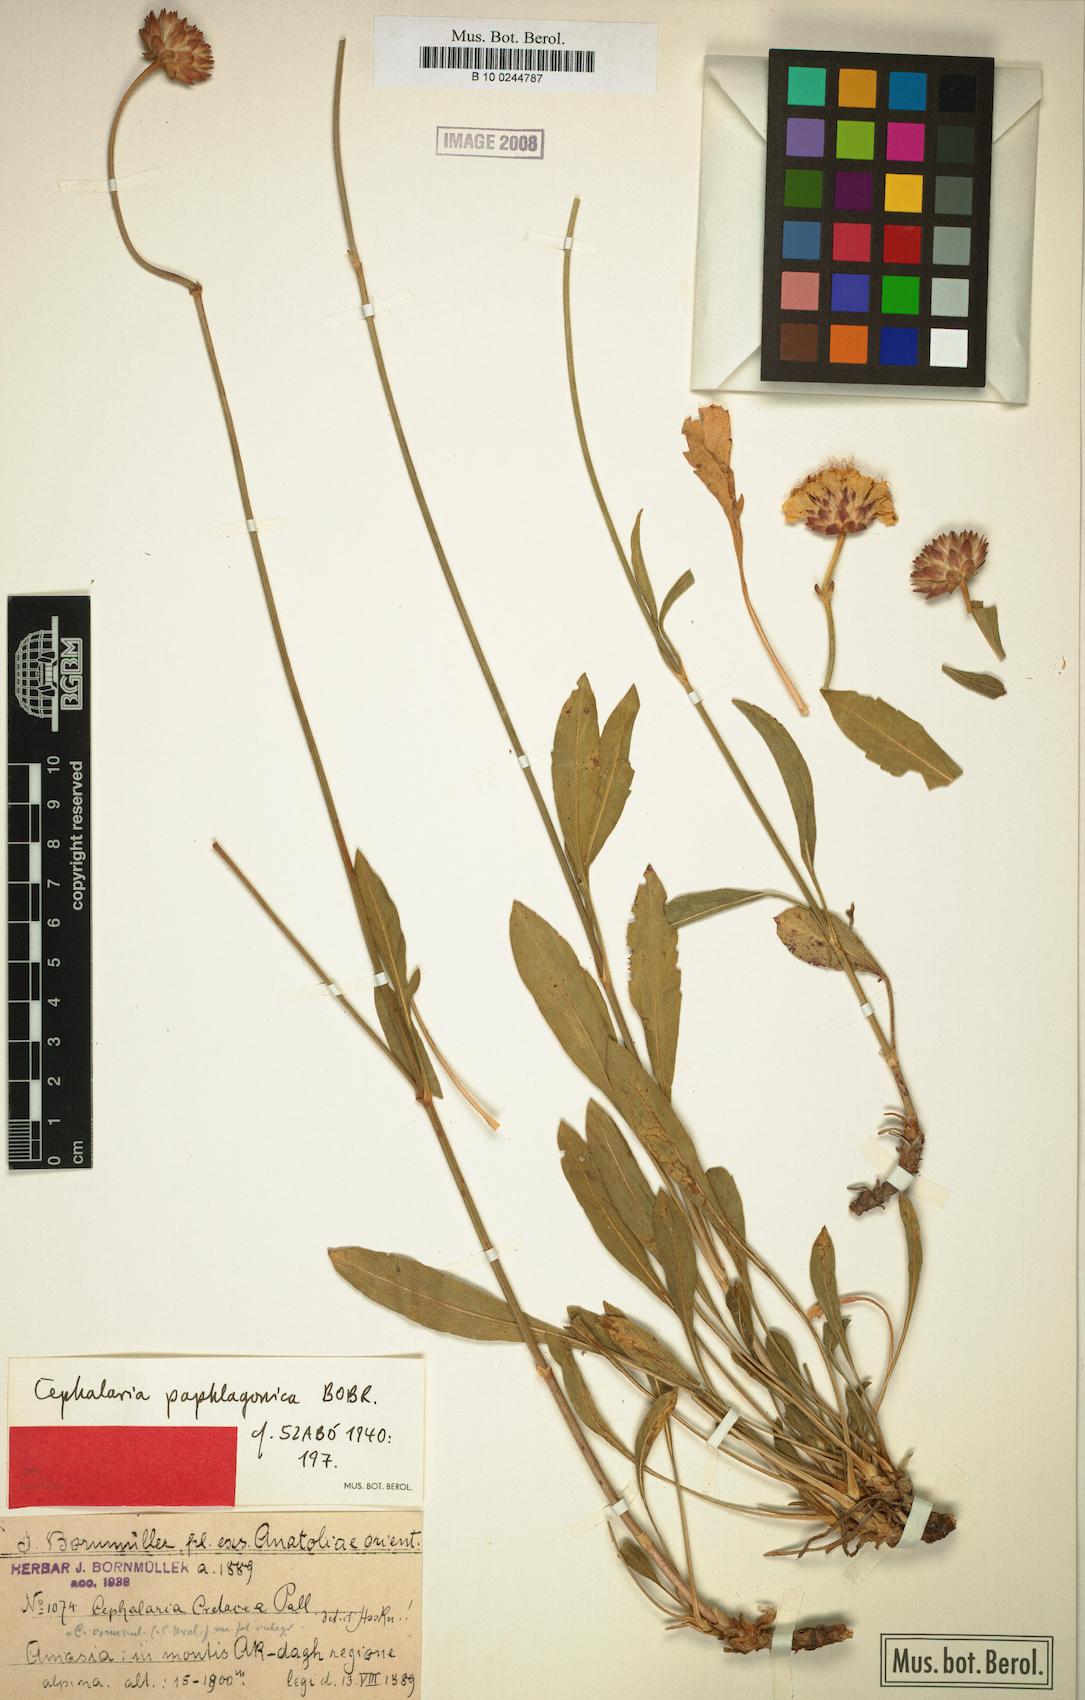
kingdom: Plantae
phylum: Tracheophyta
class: Magnoliopsida
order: Dipsacales
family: Caprifoliaceae
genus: Cephalaria
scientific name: Cephalaria paphlagonica
